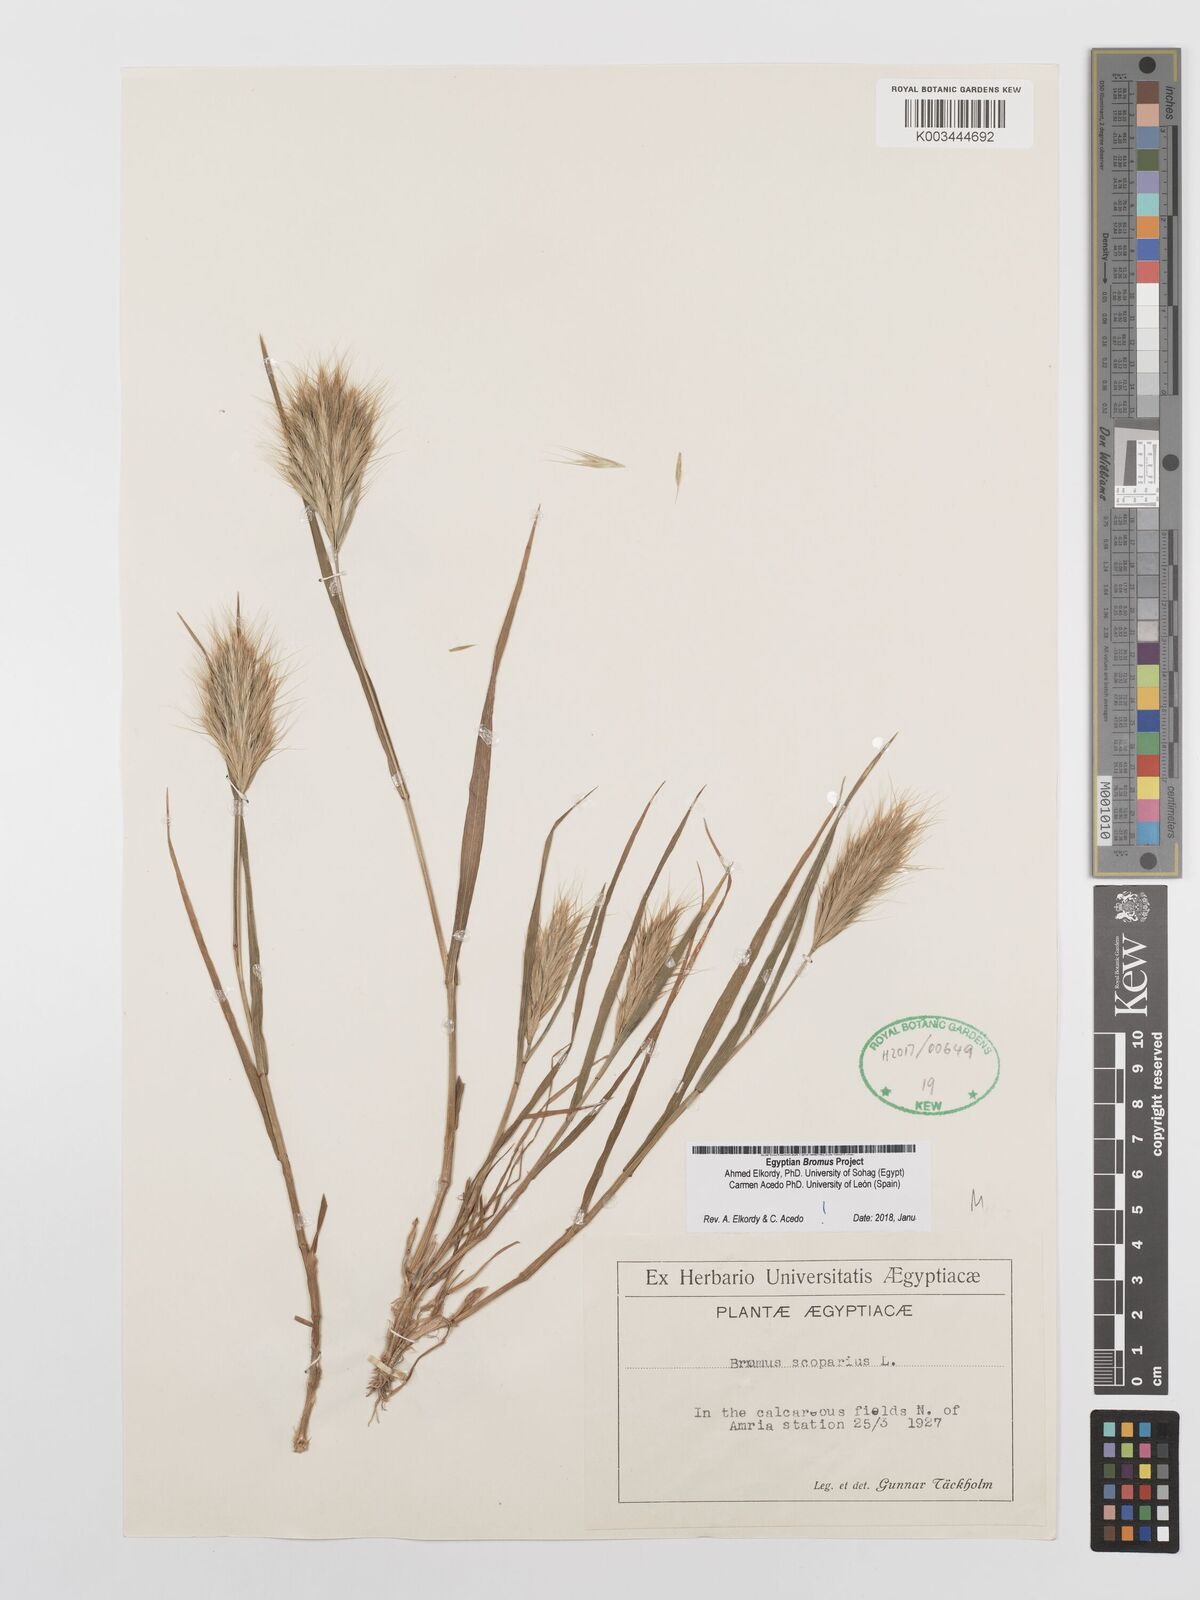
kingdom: Plantae
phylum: Tracheophyta
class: Liliopsida
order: Poales
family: Poaceae
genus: Bromus
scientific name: Bromus scoparius
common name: Broom brome
